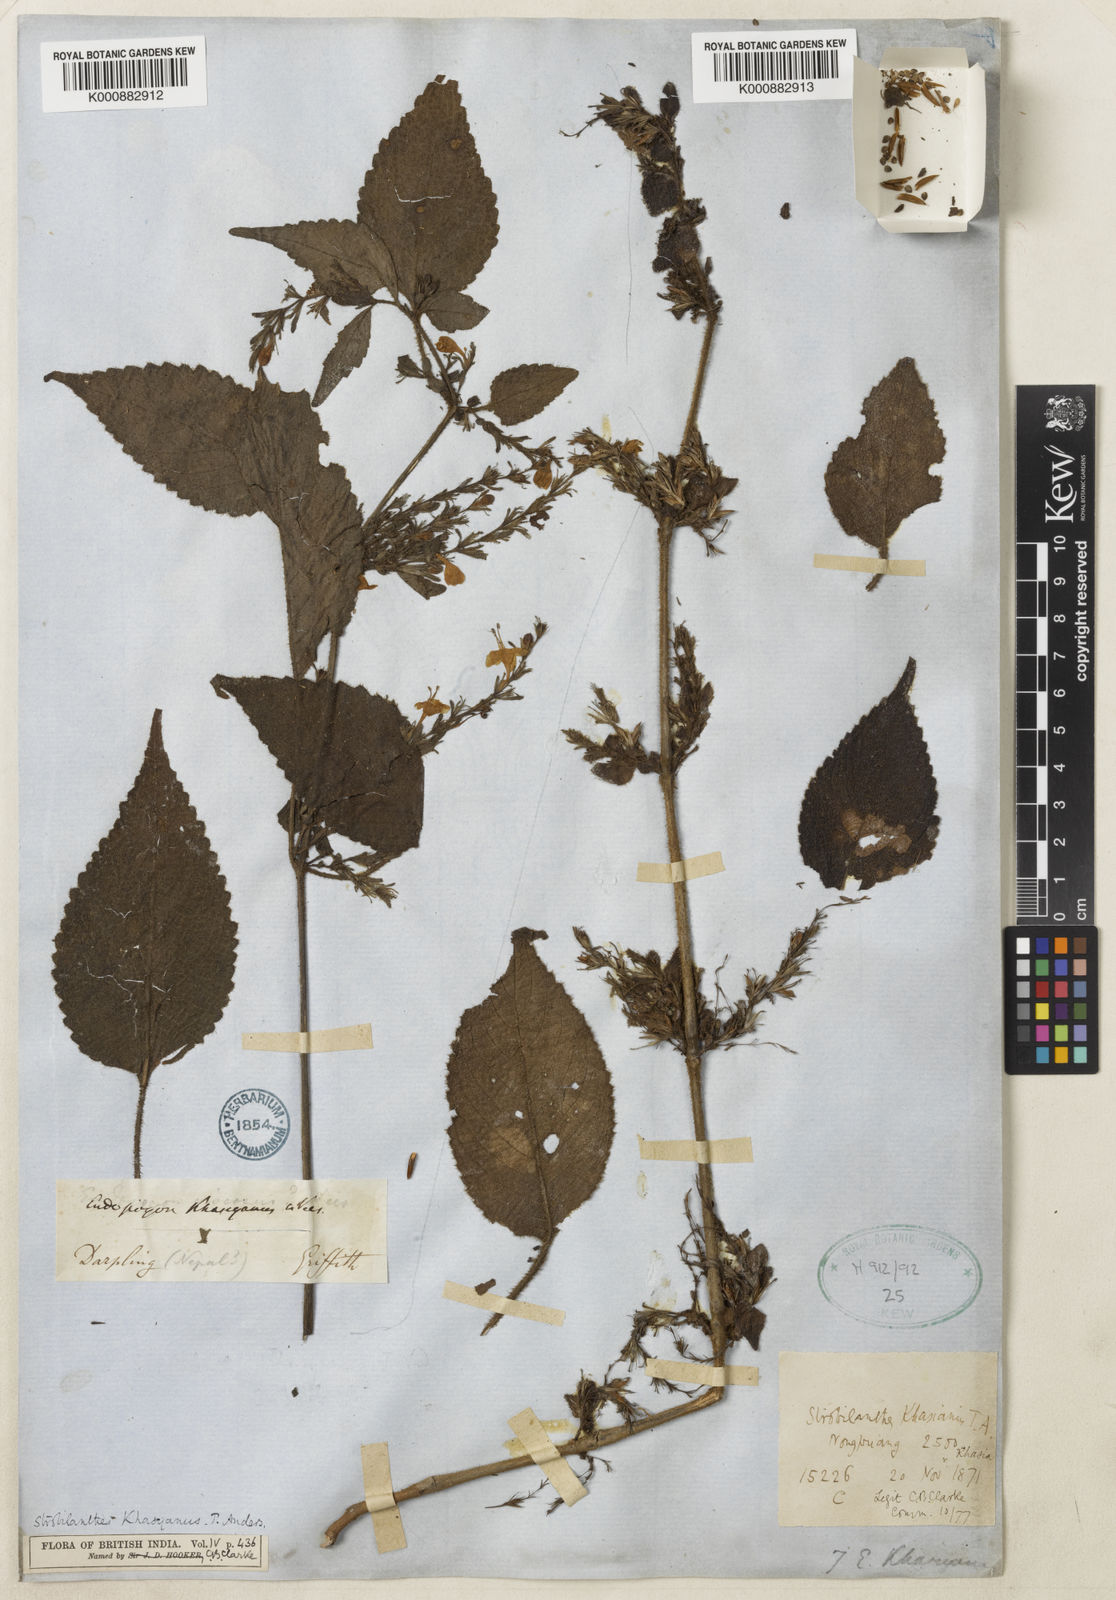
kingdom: Plantae
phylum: Tracheophyta
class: Magnoliopsida
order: Lamiales
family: Acanthaceae
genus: Strobilanthes
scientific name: Strobilanthes khasyana
